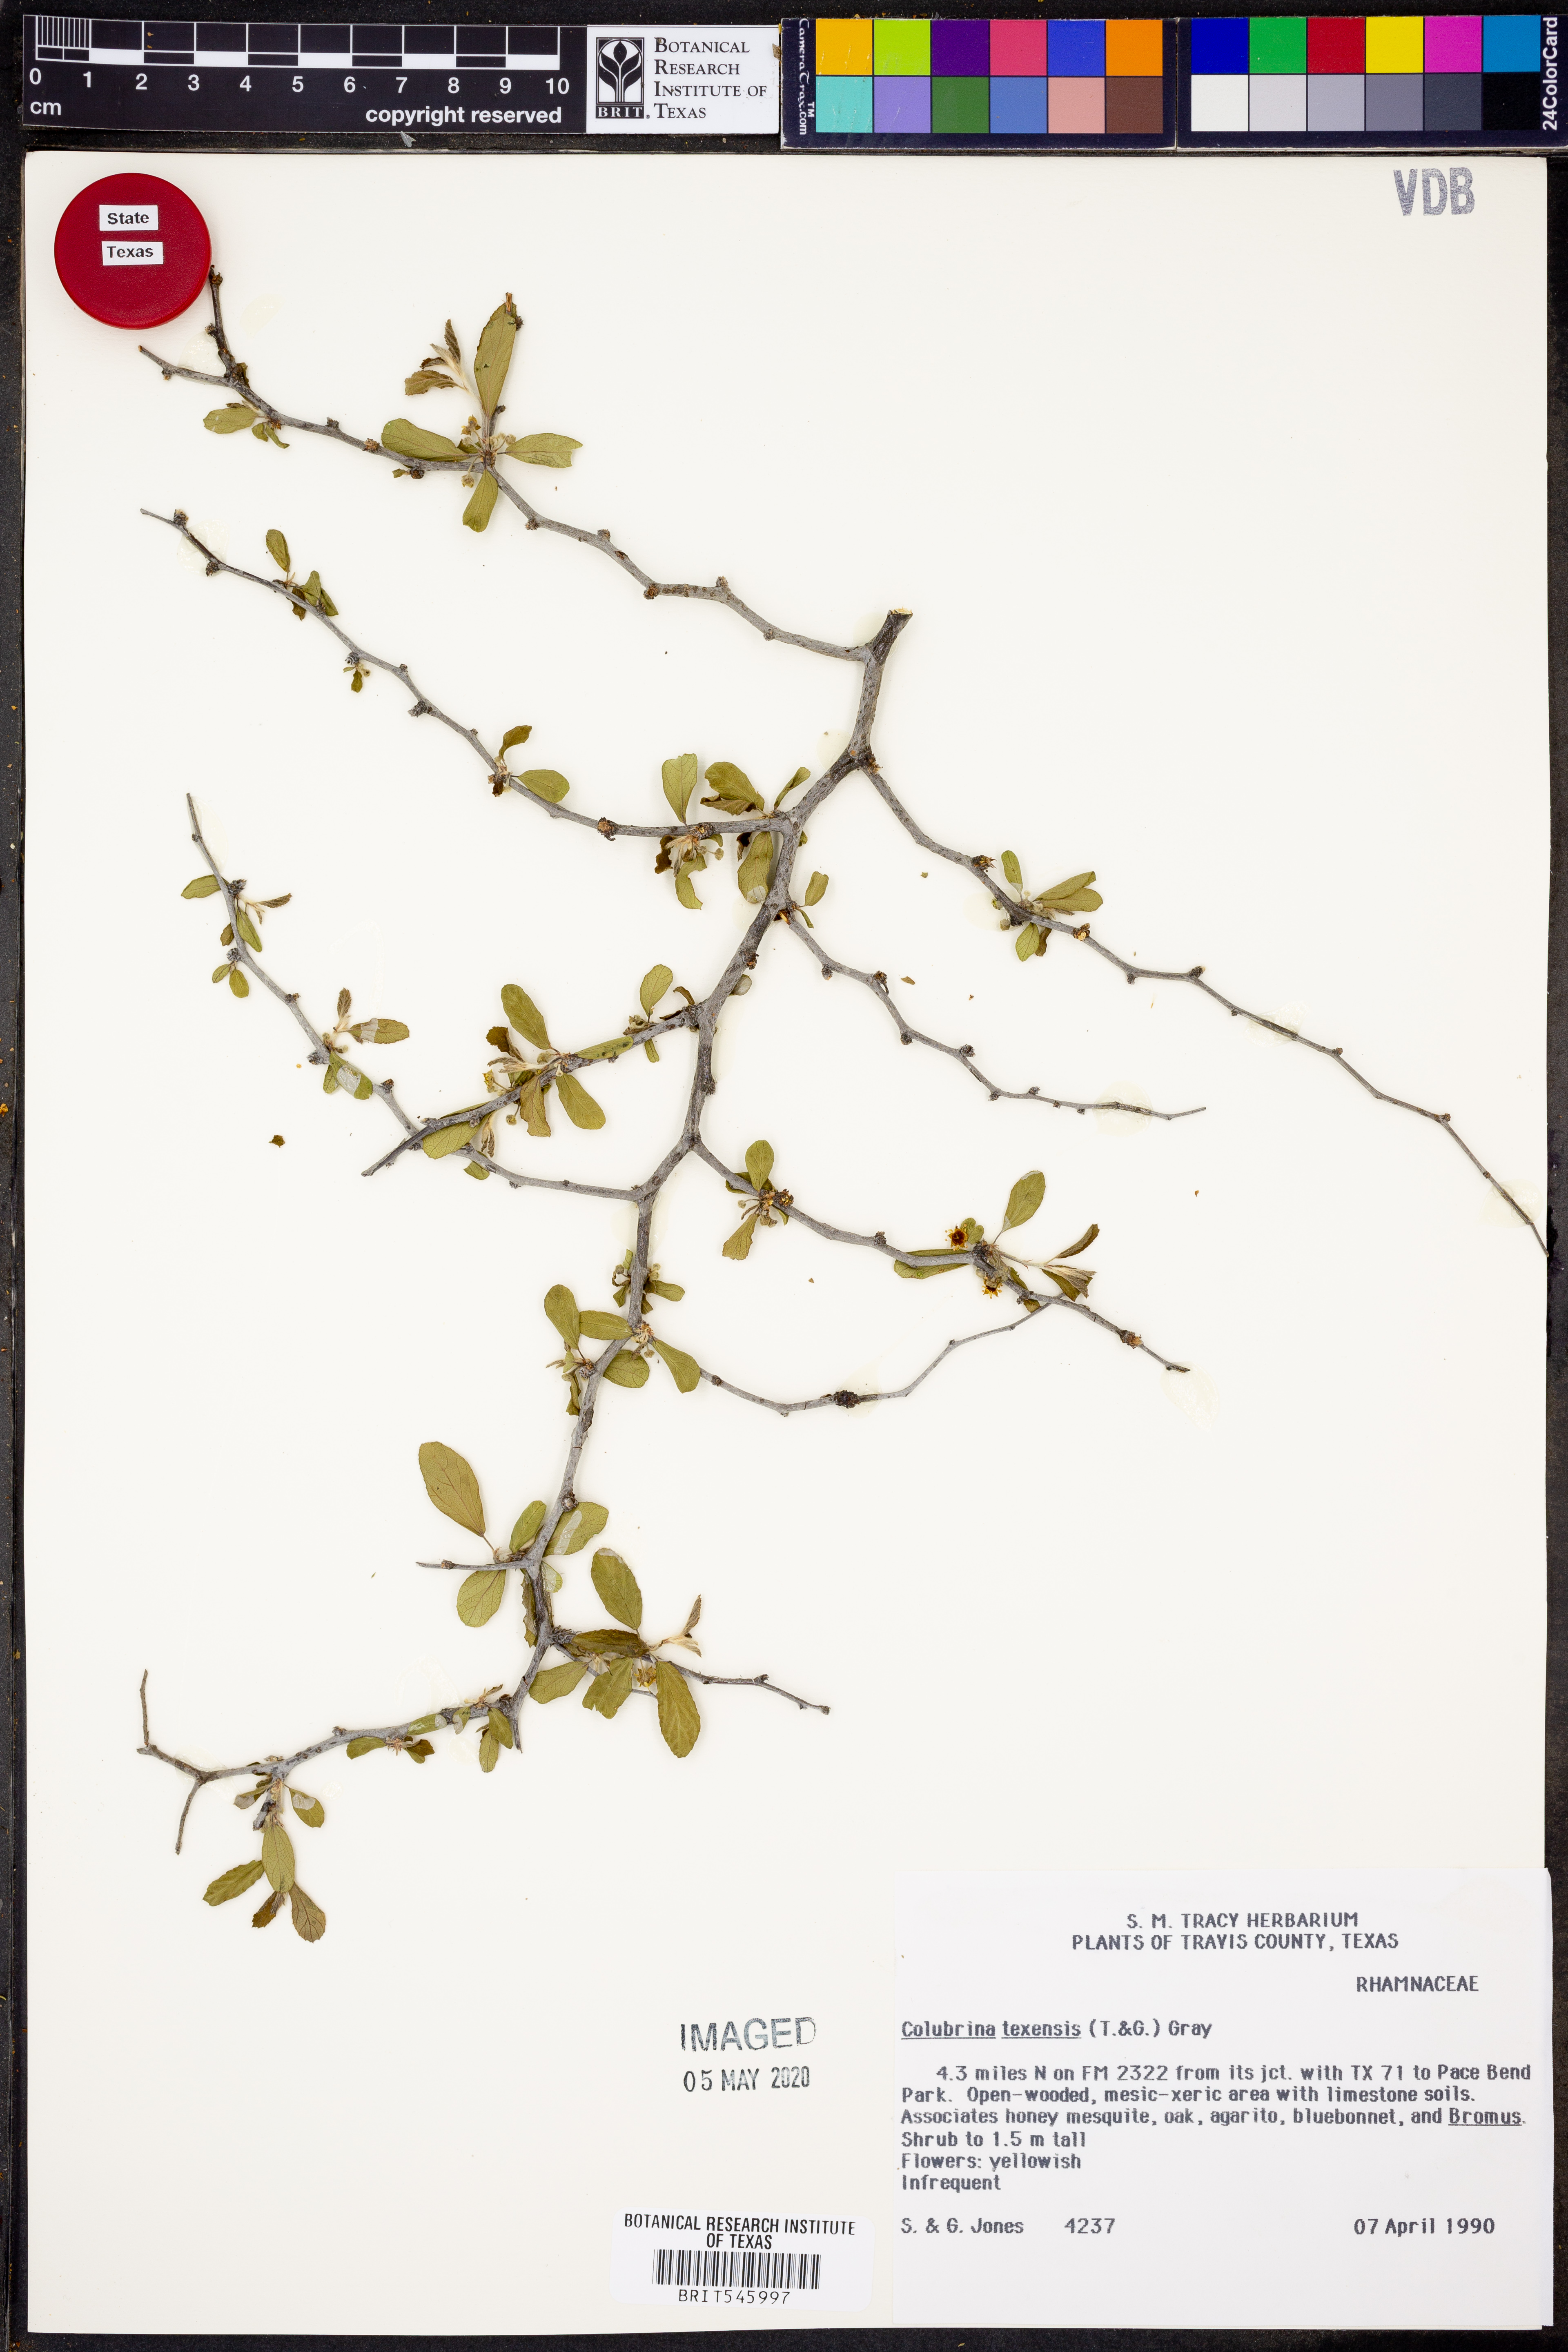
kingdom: Plantae
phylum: Tracheophyta
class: Magnoliopsida
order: Rosales
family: Rhamnaceae
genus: Colubrina
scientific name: Colubrina texensis
